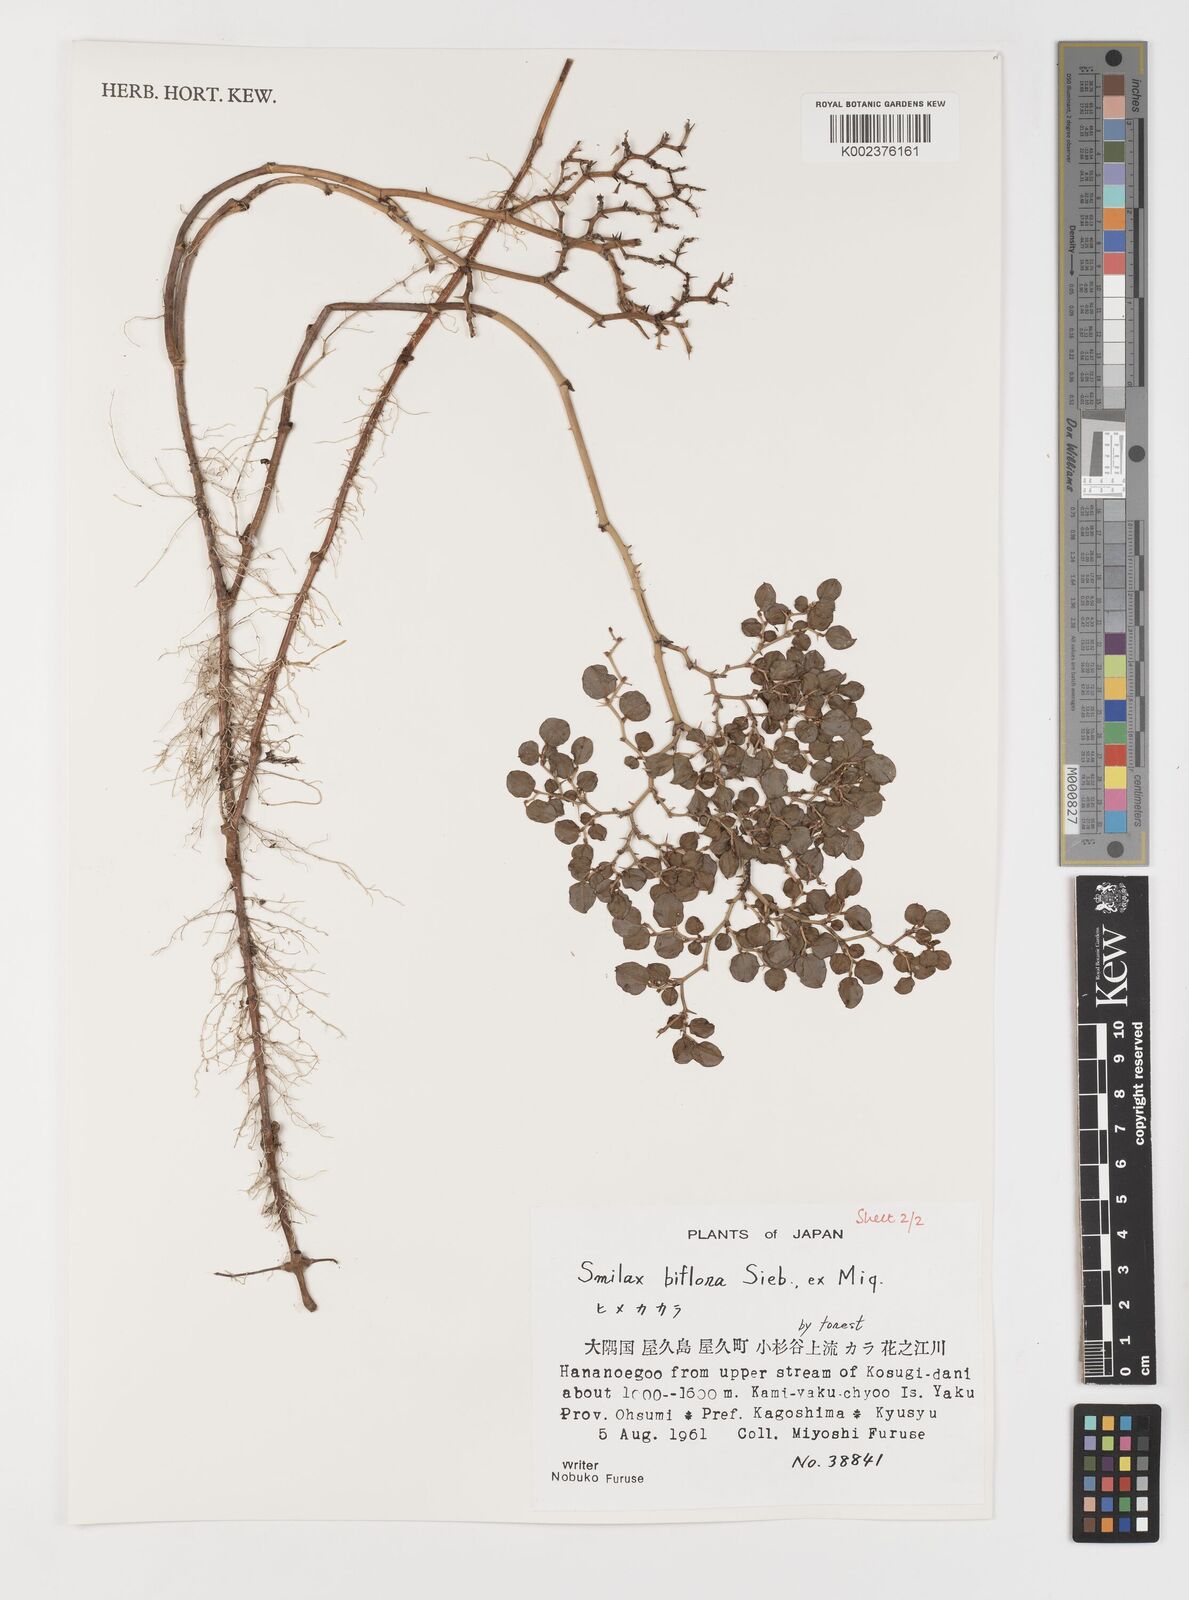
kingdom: Plantae
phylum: Tracheophyta
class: Liliopsida
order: Liliales
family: Smilacaceae
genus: Smilax
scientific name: Smilax biflora
